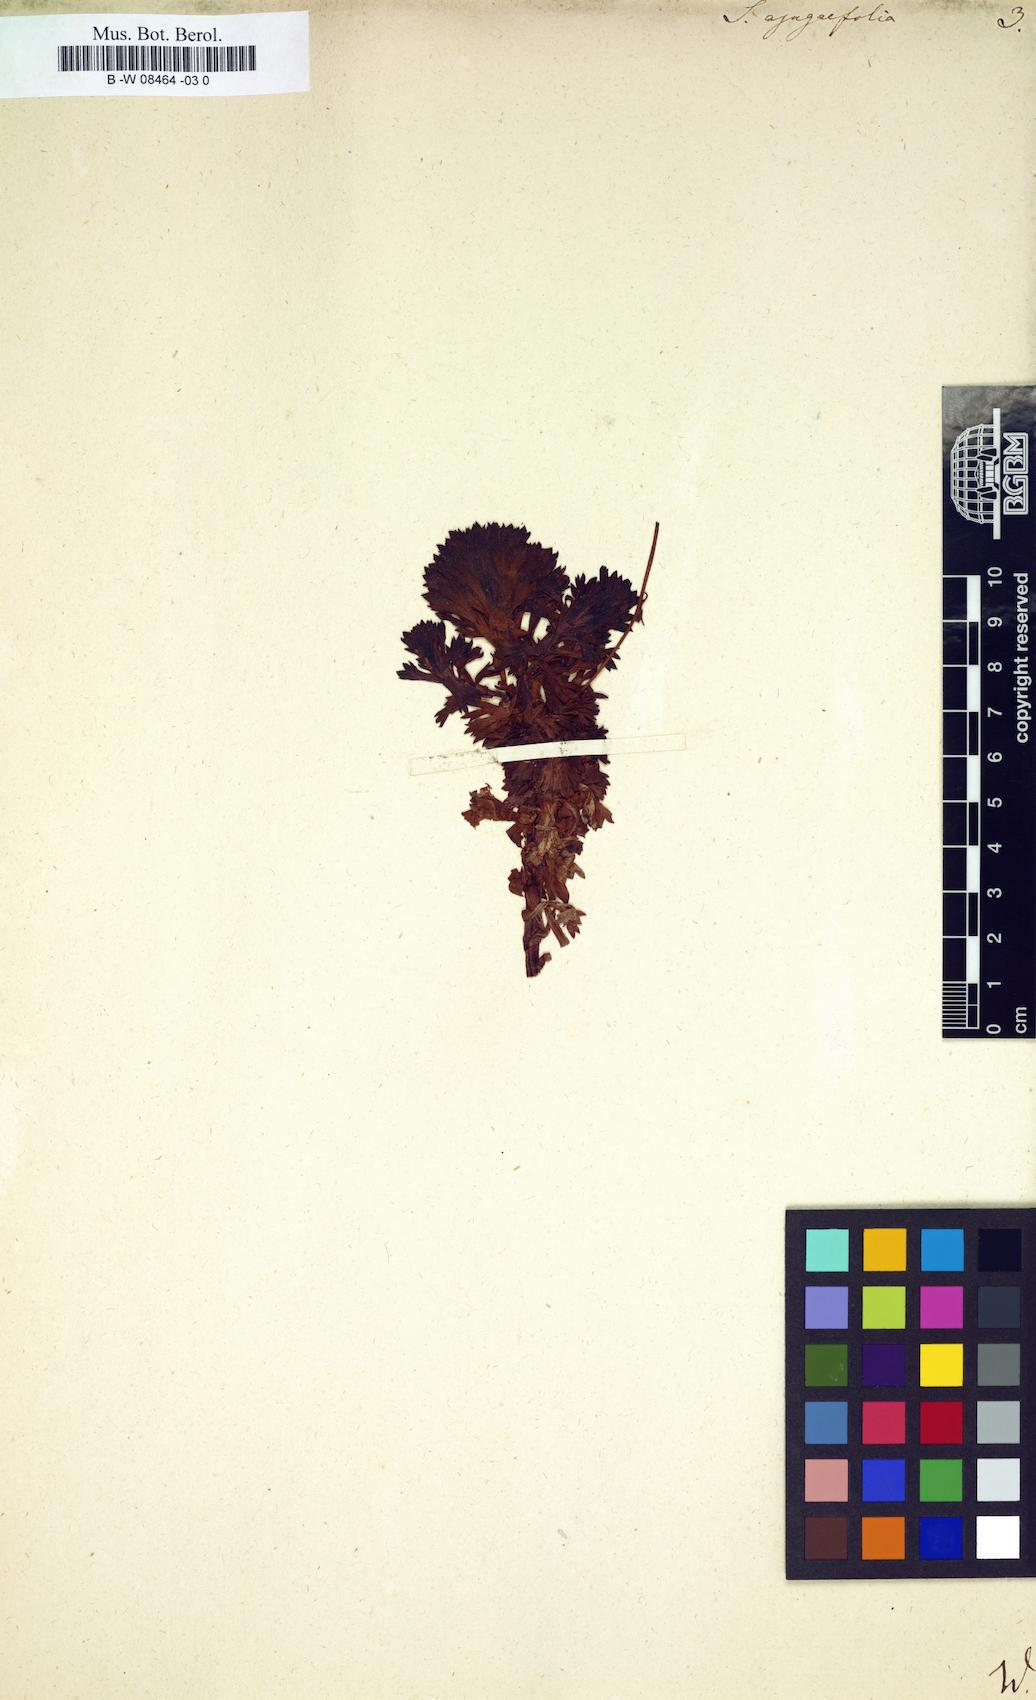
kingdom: Plantae
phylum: Tracheophyta
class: Magnoliopsida
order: Saxifragales
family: Saxifragaceae
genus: Saxifraga
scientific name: Saxifraga
